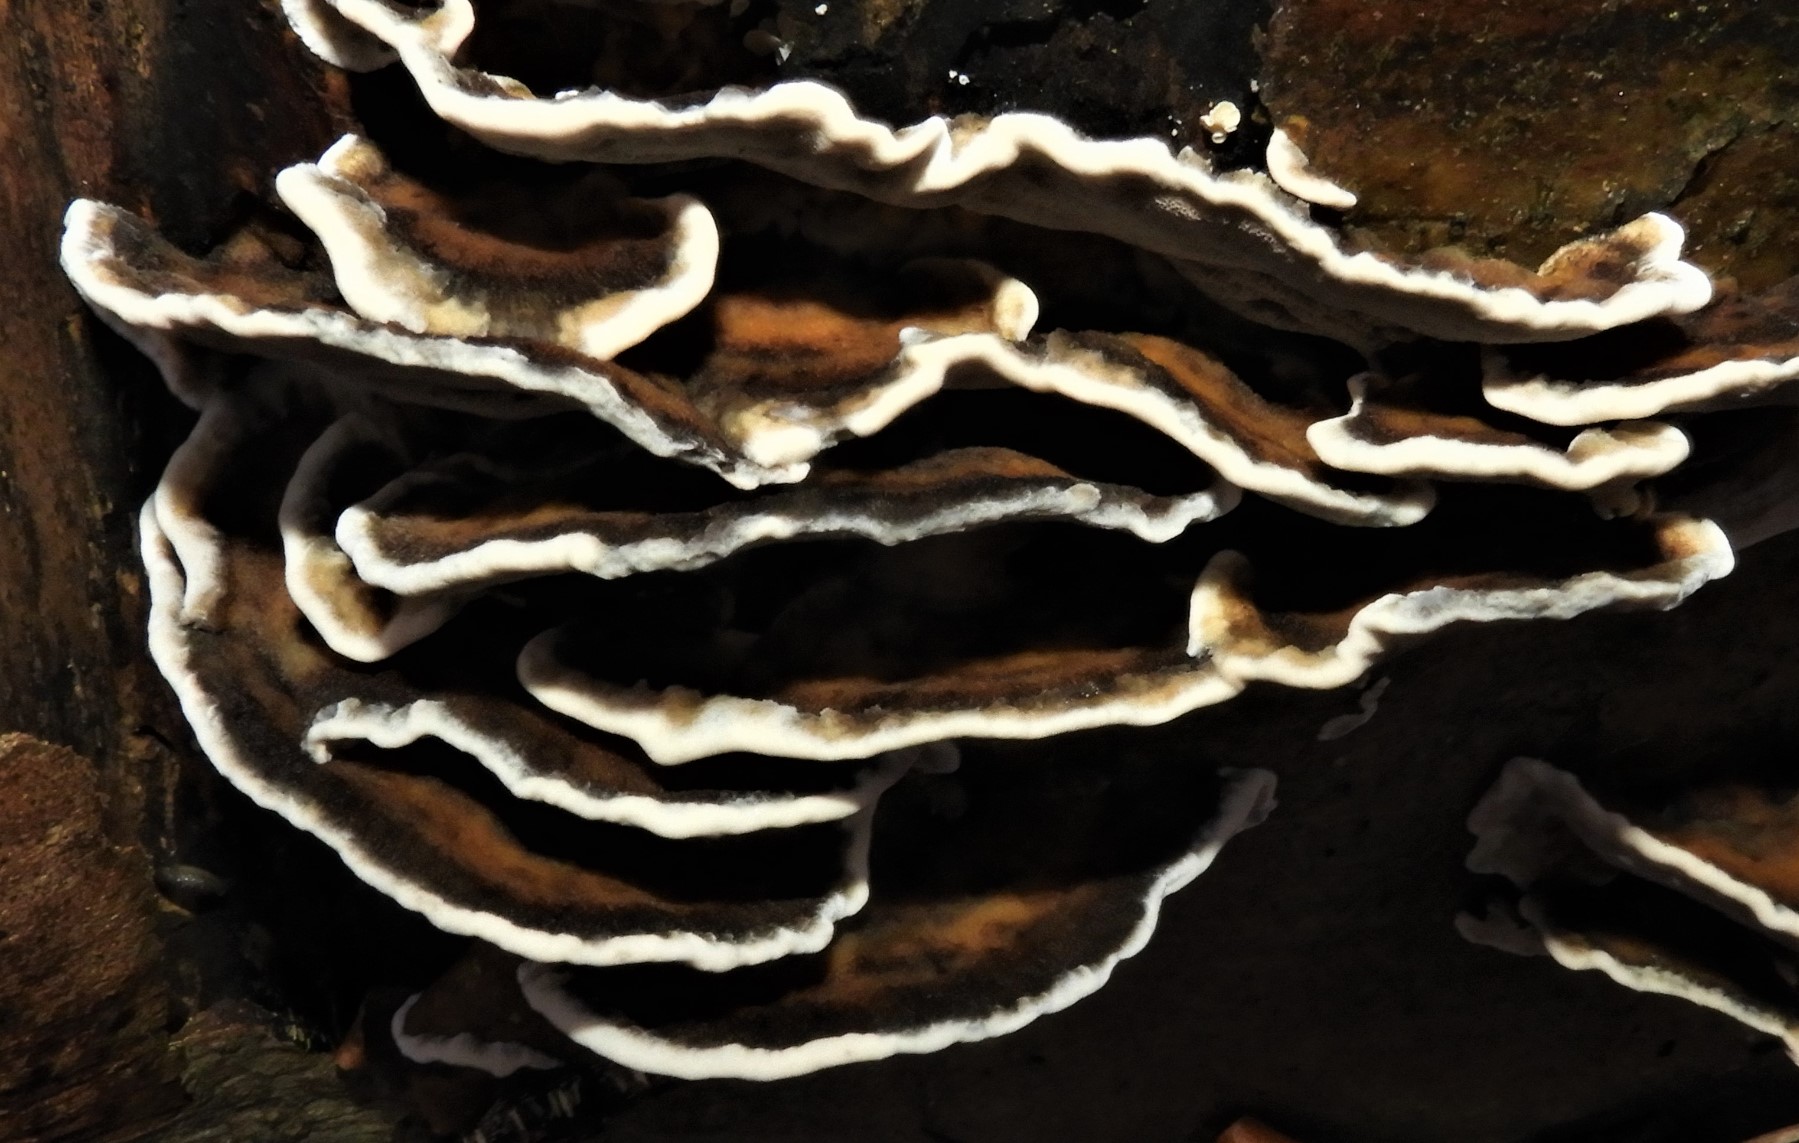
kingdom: Fungi
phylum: Basidiomycota
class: Agaricomycetes
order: Polyporales
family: Phanerochaetaceae
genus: Bjerkandera
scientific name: Bjerkandera adusta
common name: sveden sodporesvamp
